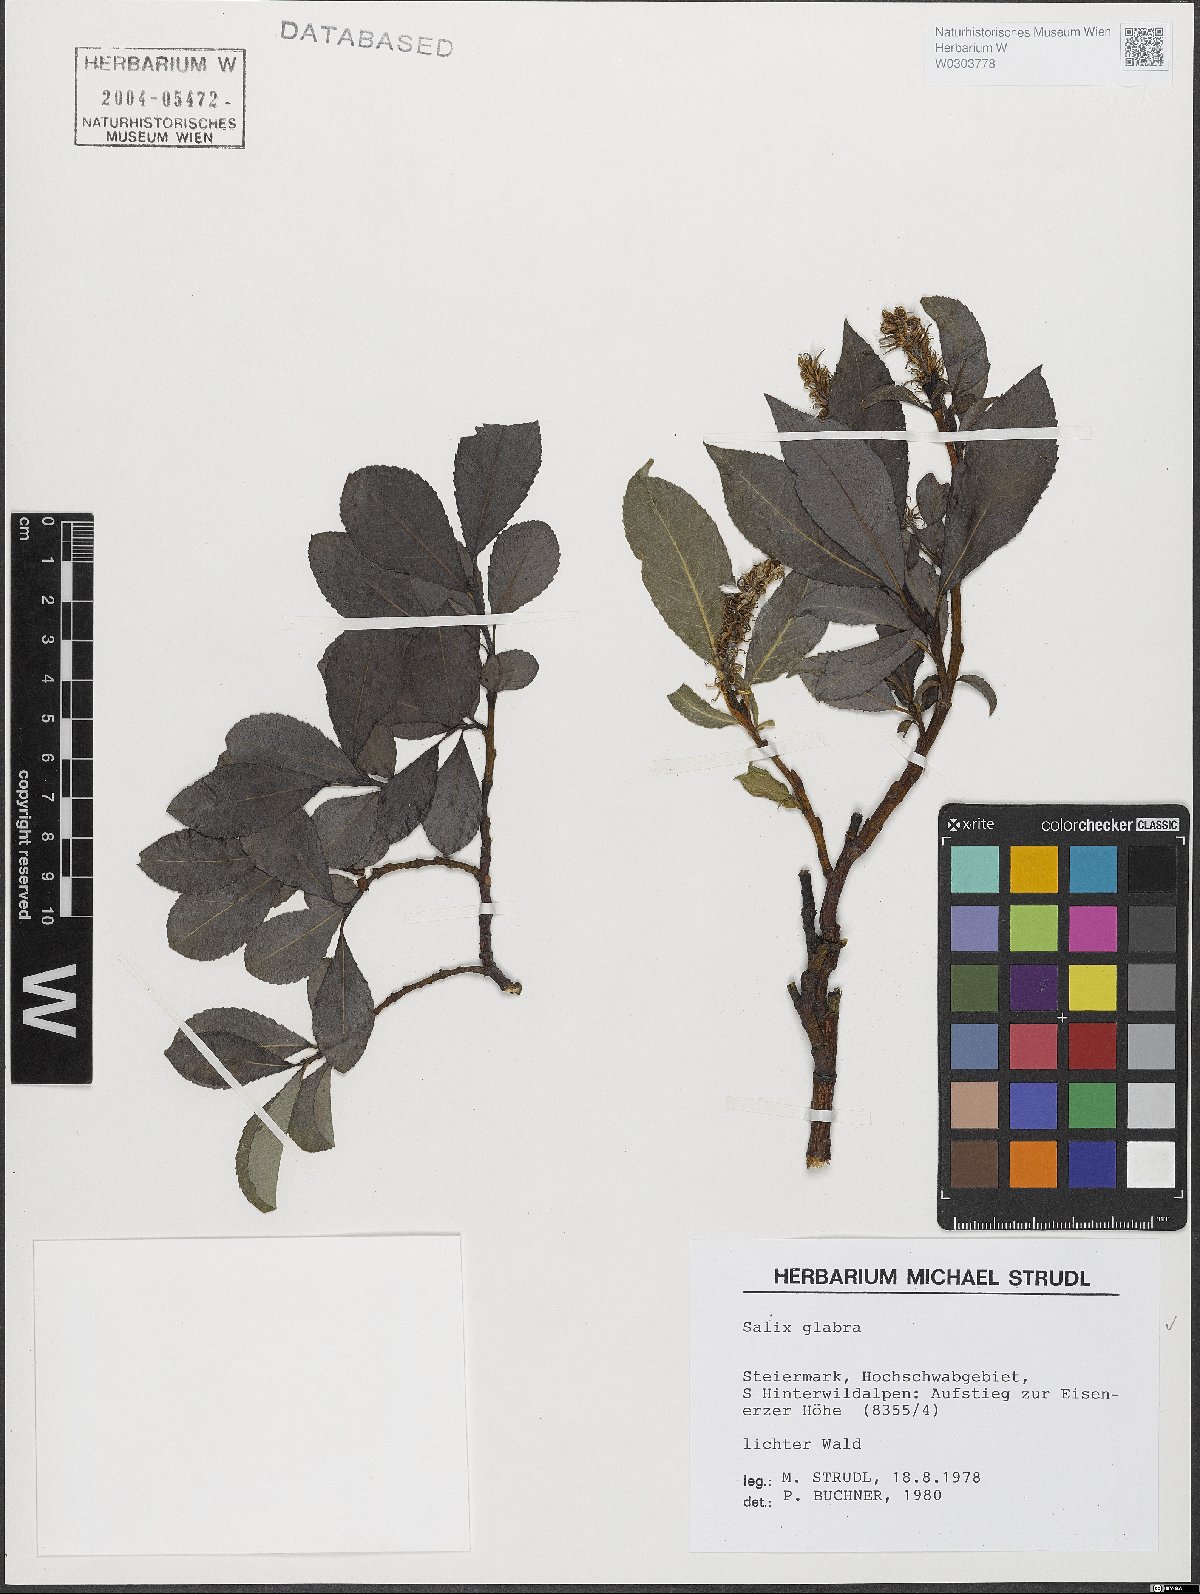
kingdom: Plantae
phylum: Tracheophyta
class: Magnoliopsida
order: Malpighiales
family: Salicaceae
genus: Salix
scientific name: Salix glabra
